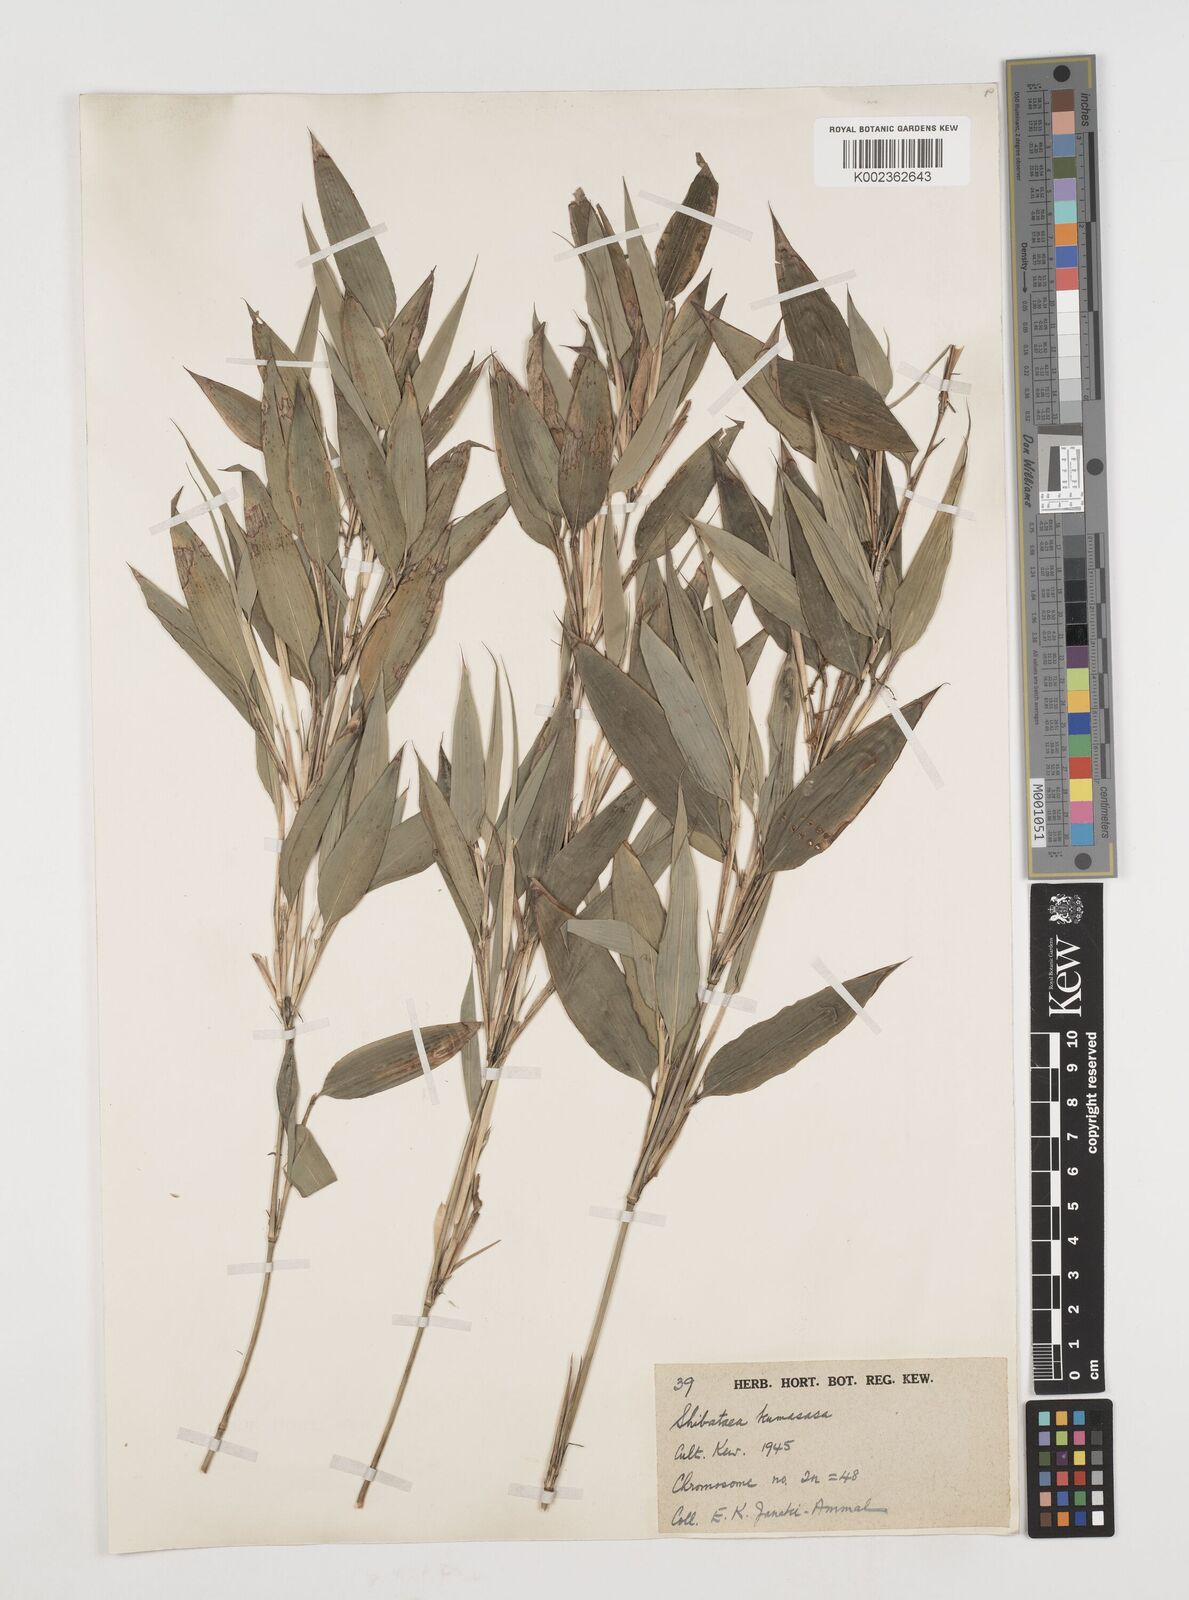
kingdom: Plantae
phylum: Tracheophyta
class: Liliopsida
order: Poales
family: Poaceae
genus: Shibataea
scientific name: Shibataea kumasasa
